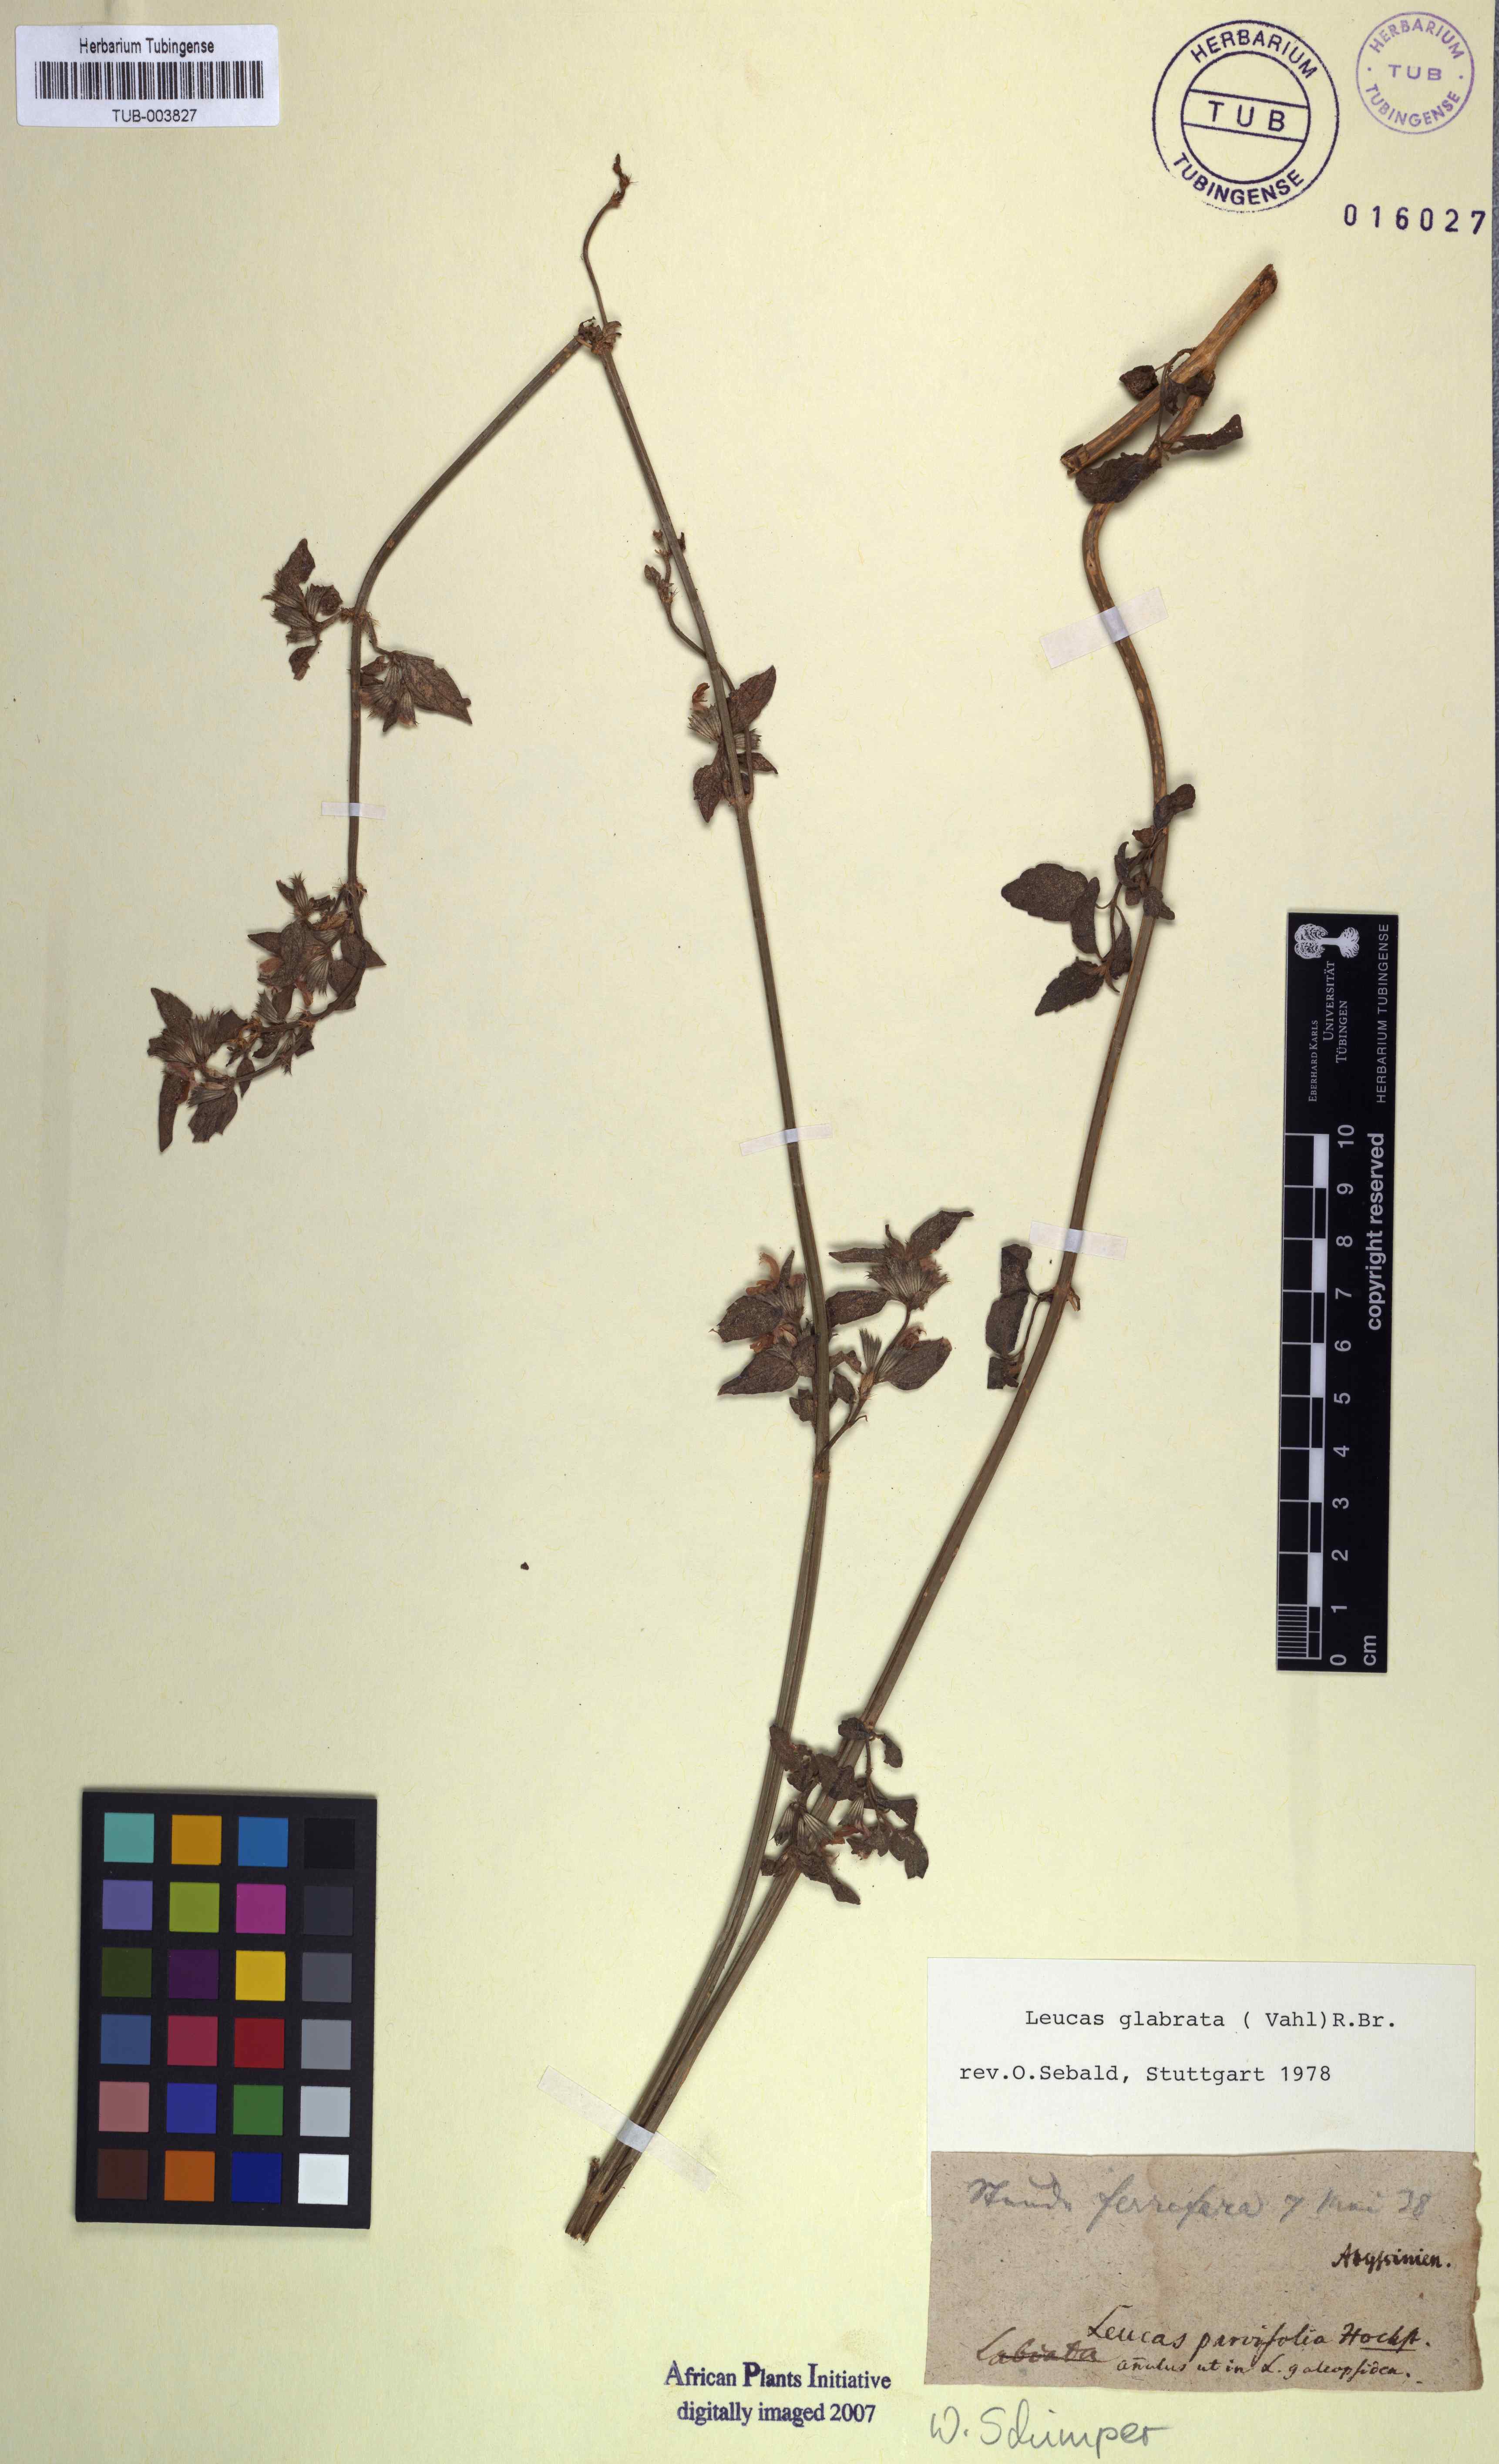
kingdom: Plantae
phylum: Tracheophyta
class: Magnoliopsida
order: Lamiales
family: Lamiaceae
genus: Leucas
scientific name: Leucas glabrata
